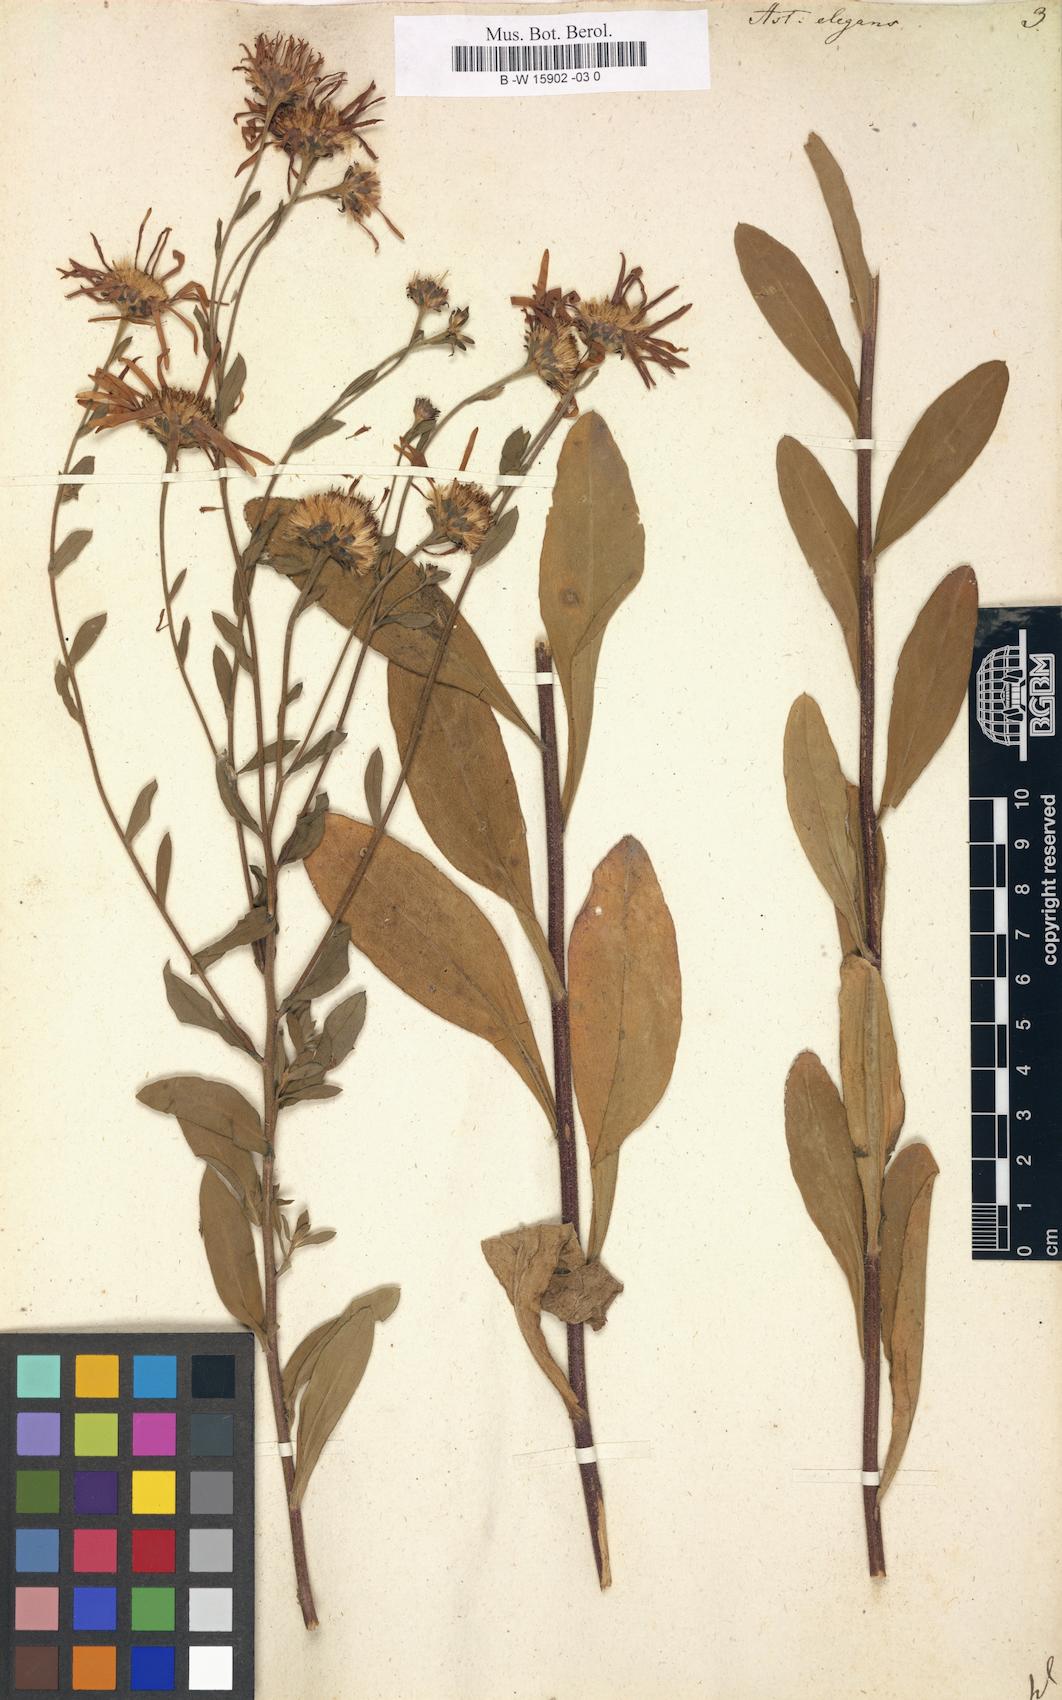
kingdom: Plantae
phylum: Tracheophyta
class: Magnoliopsida
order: Asterales
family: Asteraceae
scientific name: Asteraceae
